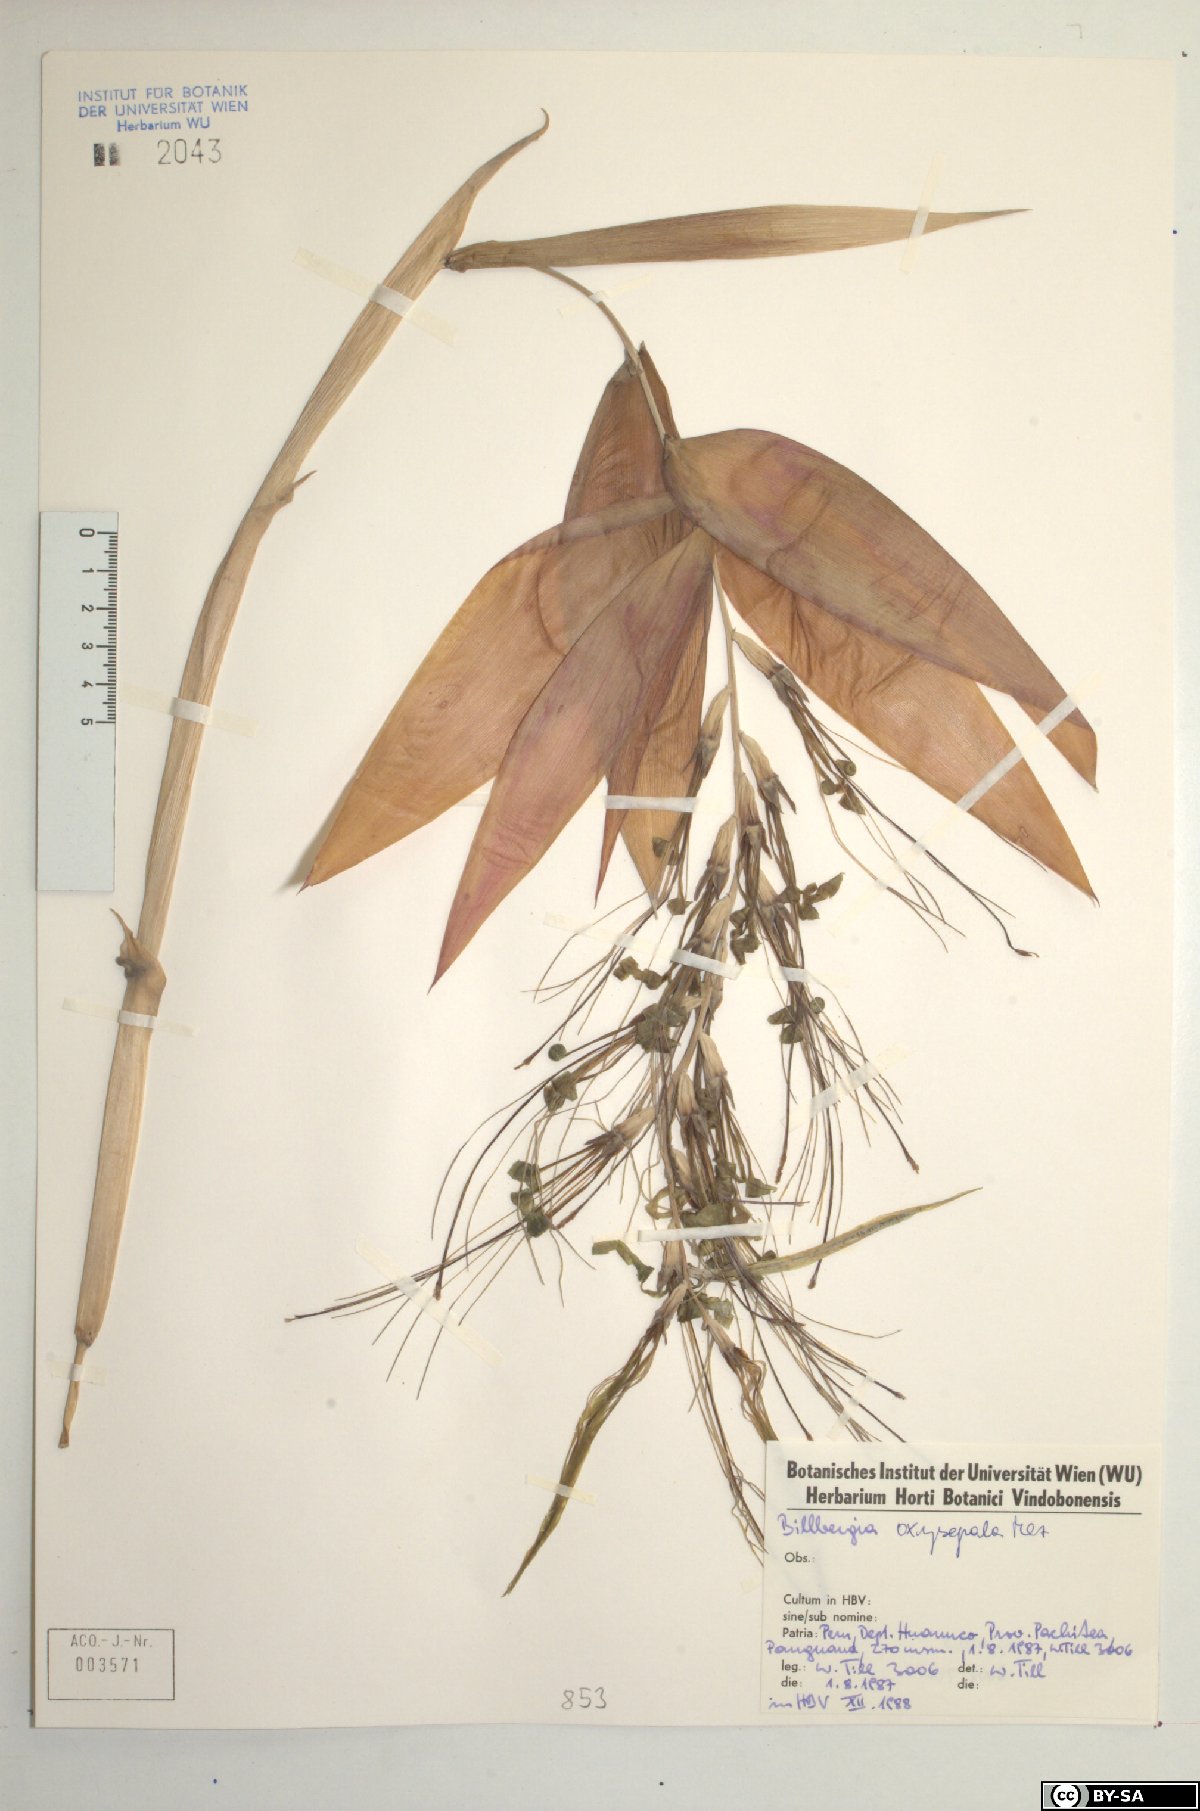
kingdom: Plantae
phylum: Tracheophyta
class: Liliopsida
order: Poales
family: Bromeliaceae
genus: Billbergia
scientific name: Billbergia oxysepala
